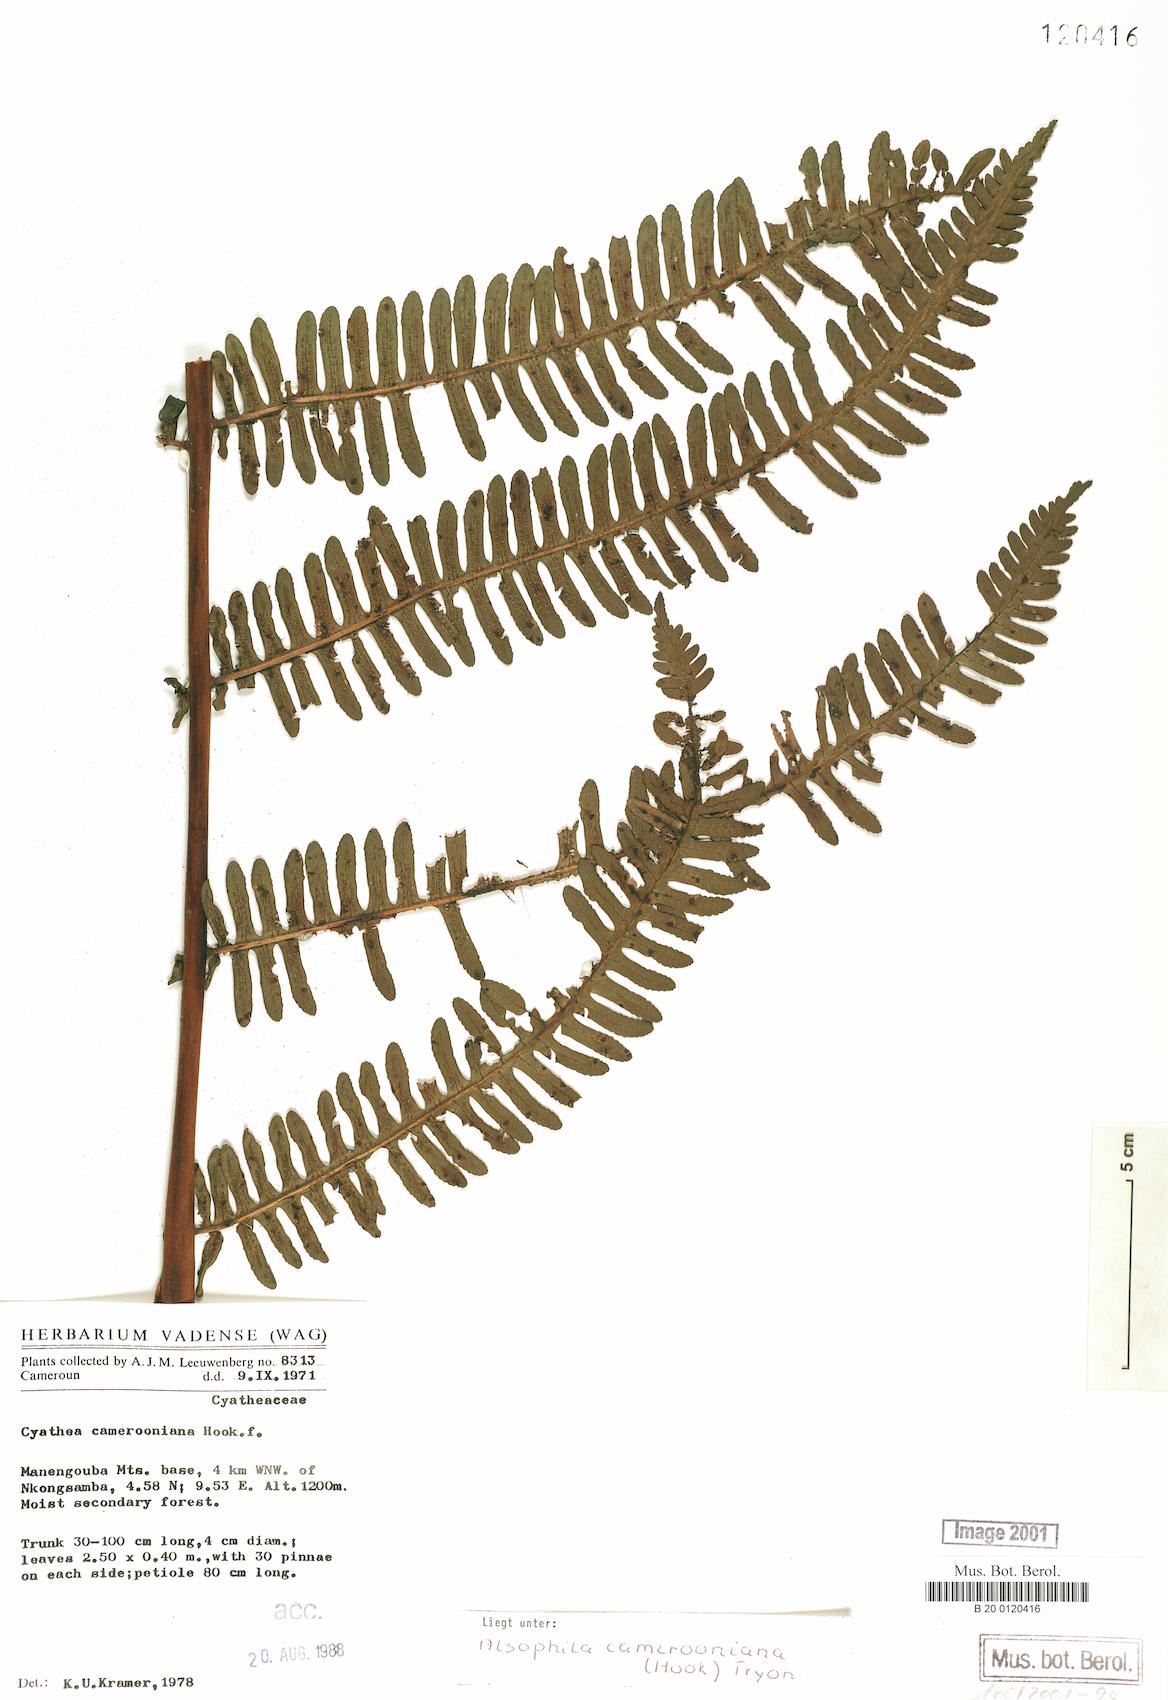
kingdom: Plantae
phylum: Tracheophyta
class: Polypodiopsida
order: Cyatheales
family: Cyatheaceae
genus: Alsophila
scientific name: Alsophila camerooniana
